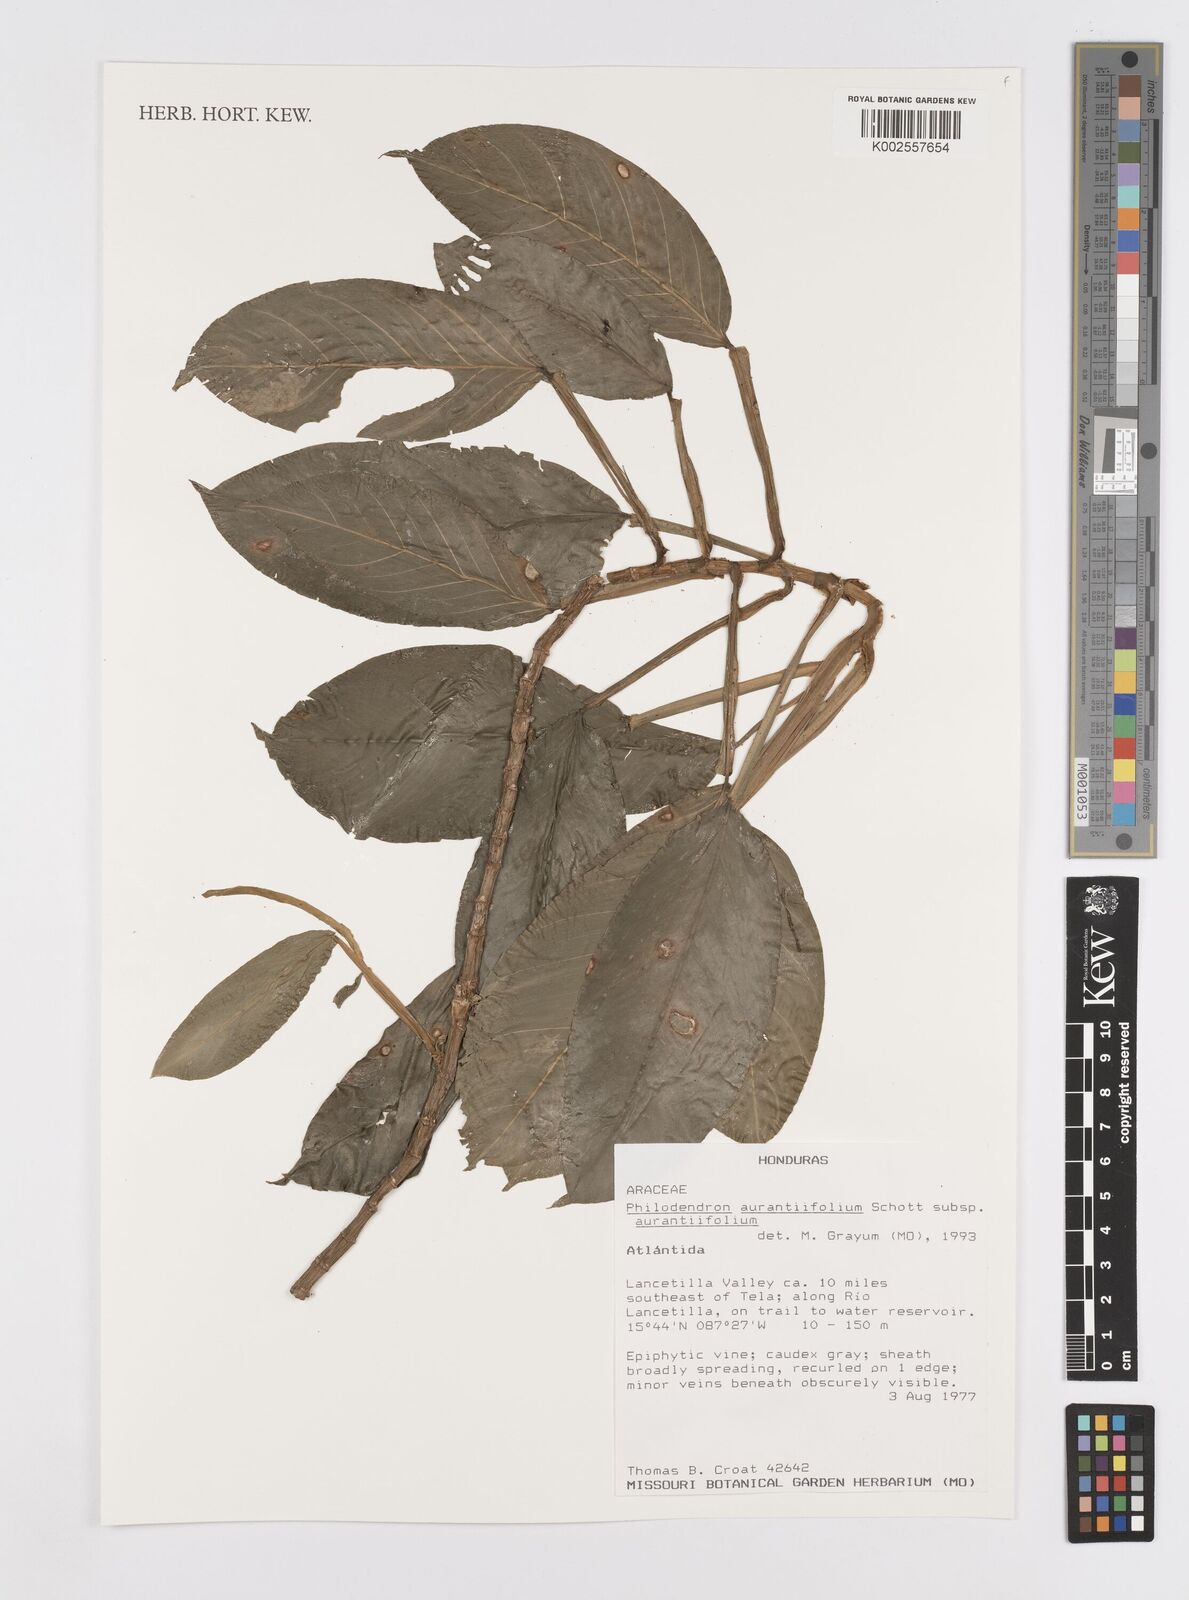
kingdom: Plantae
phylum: Tracheophyta
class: Liliopsida
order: Alismatales
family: Araceae
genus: Philodendron
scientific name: Philodendron aurantiifolium
